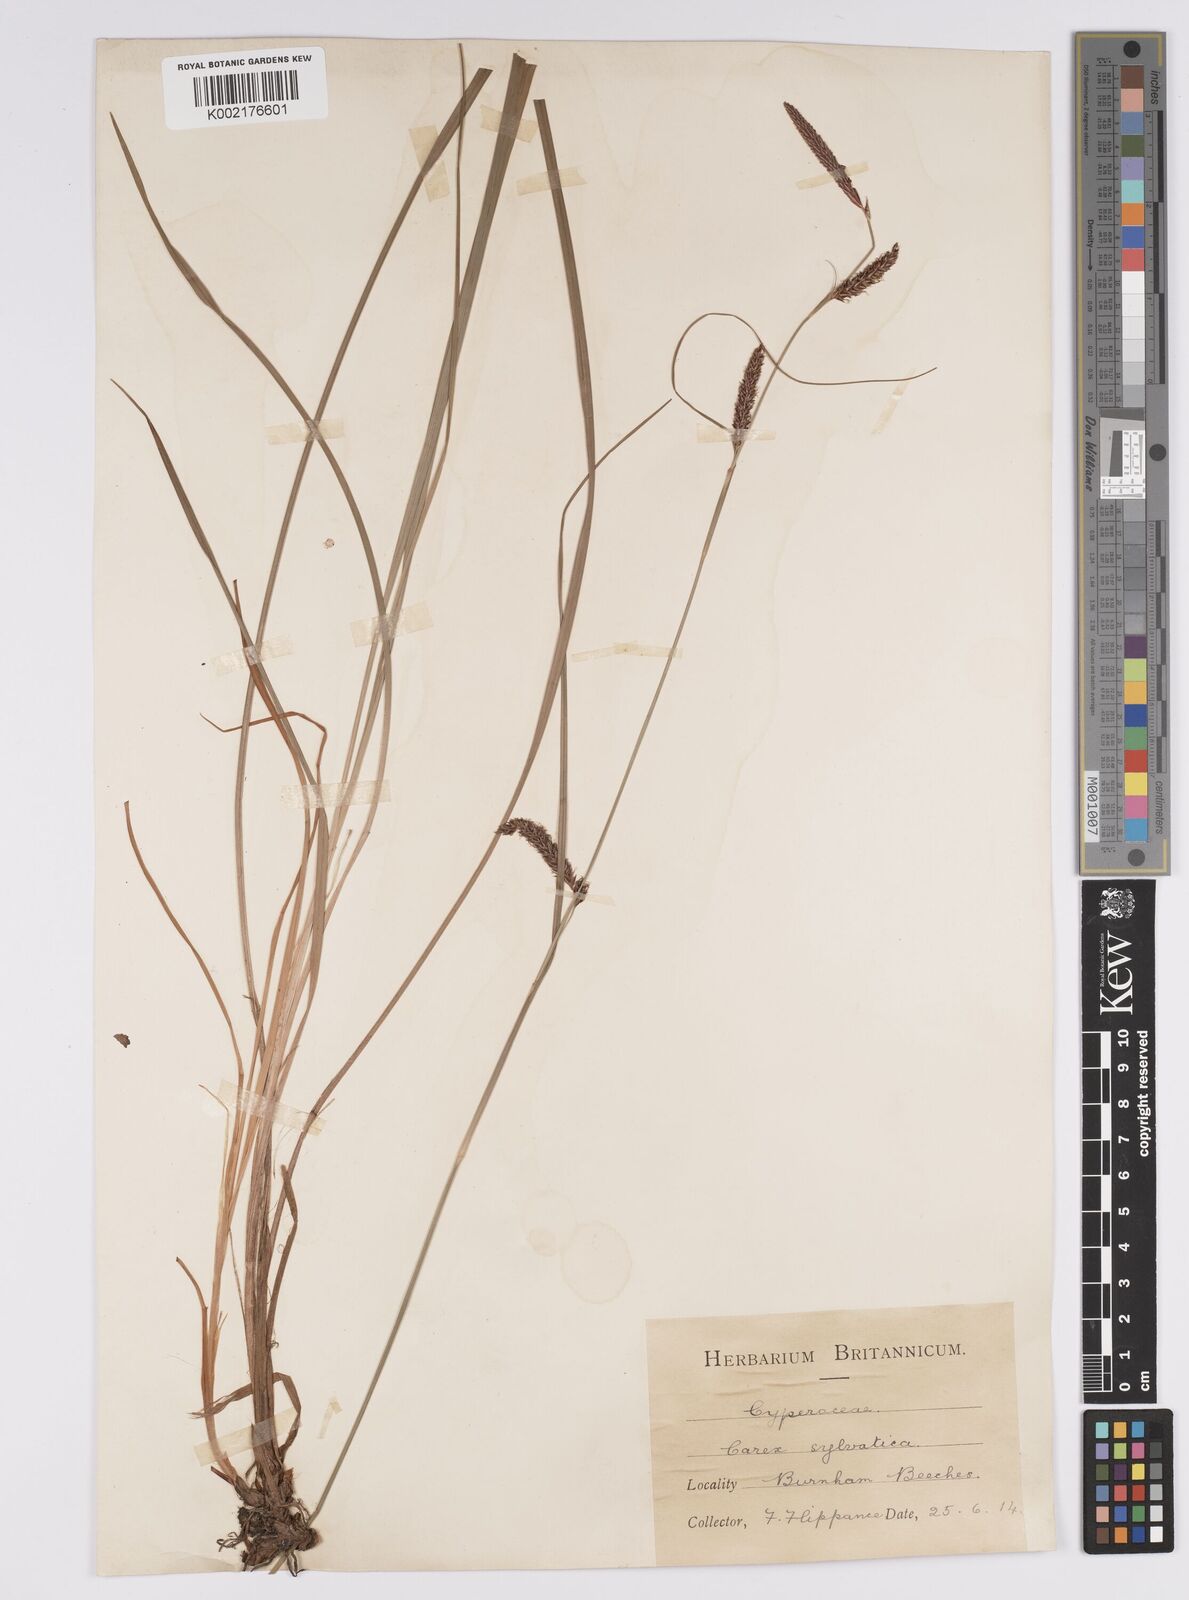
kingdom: Plantae
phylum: Tracheophyta
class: Liliopsida
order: Poales
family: Cyperaceae
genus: Carex
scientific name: Carex binervis
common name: Green-ribbed sedge
